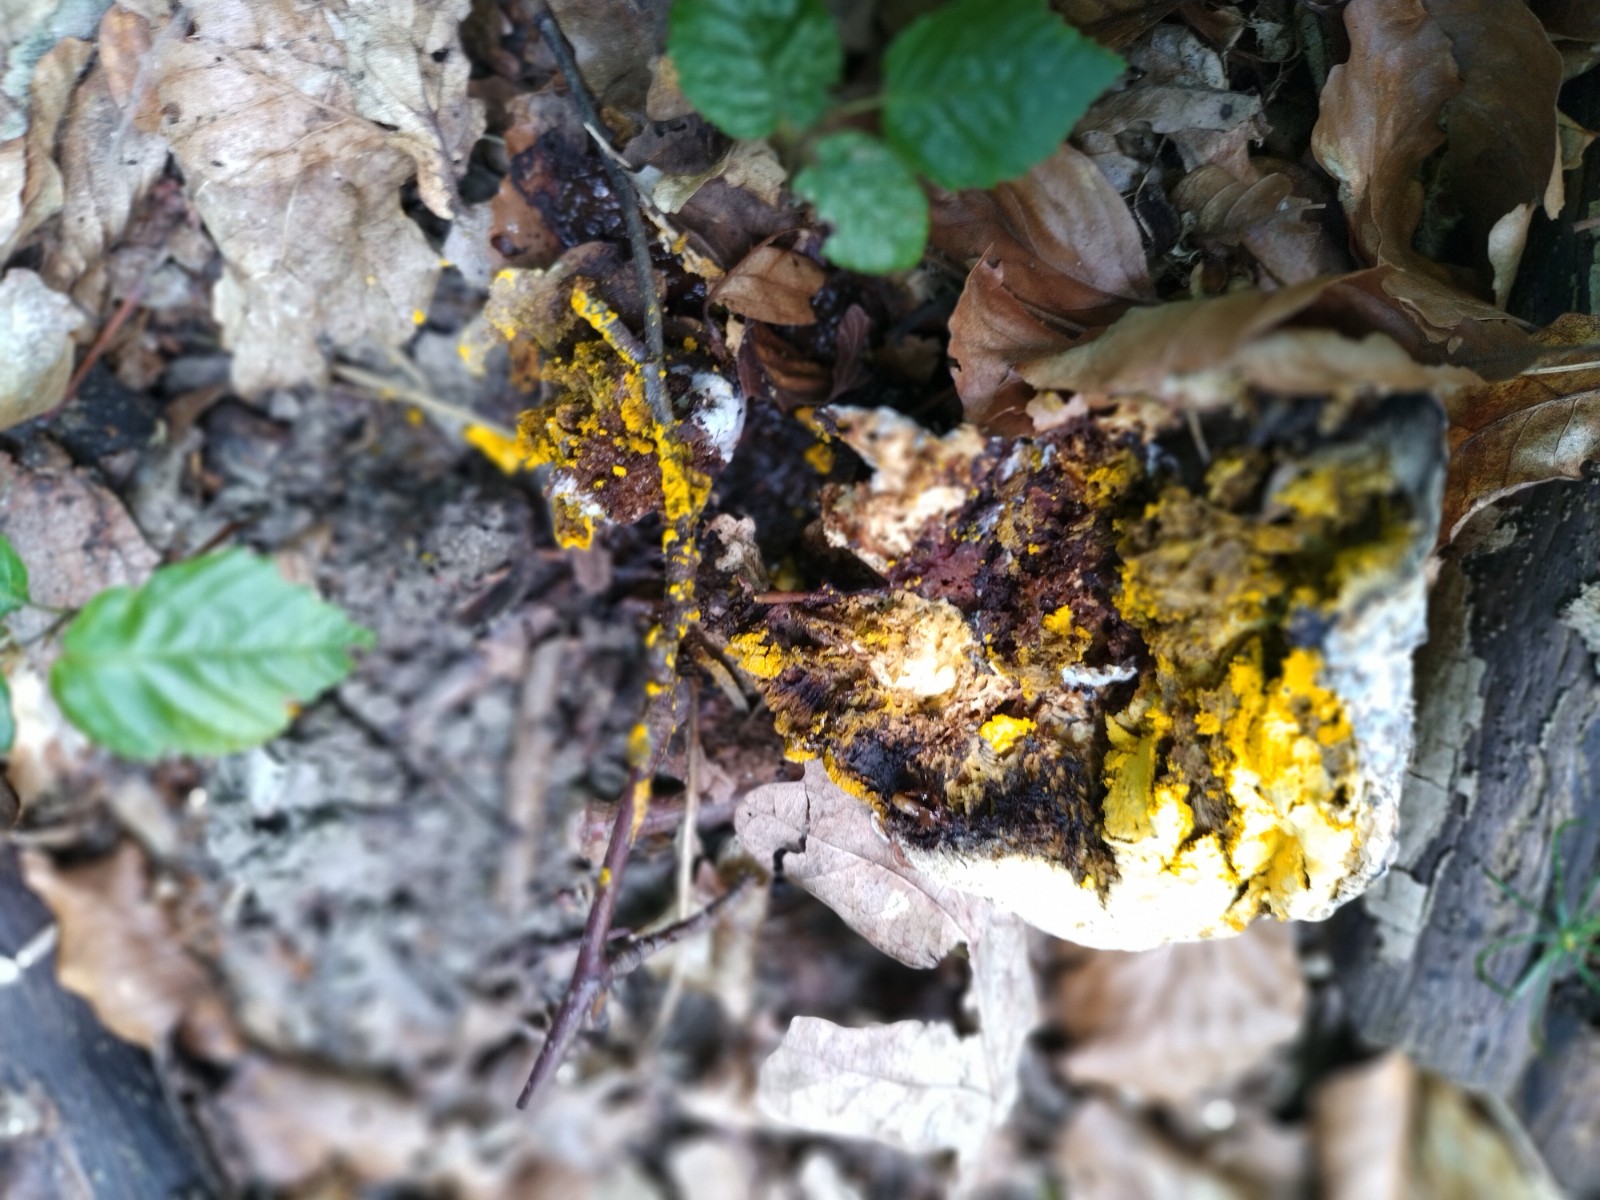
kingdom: Fungi
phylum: Ascomycota
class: Sordariomycetes
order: Hypocreales
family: Hypocreaceae
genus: Hypomyces
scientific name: Hypomyces chrysospermus
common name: gulskimmel-snylteskorpe
